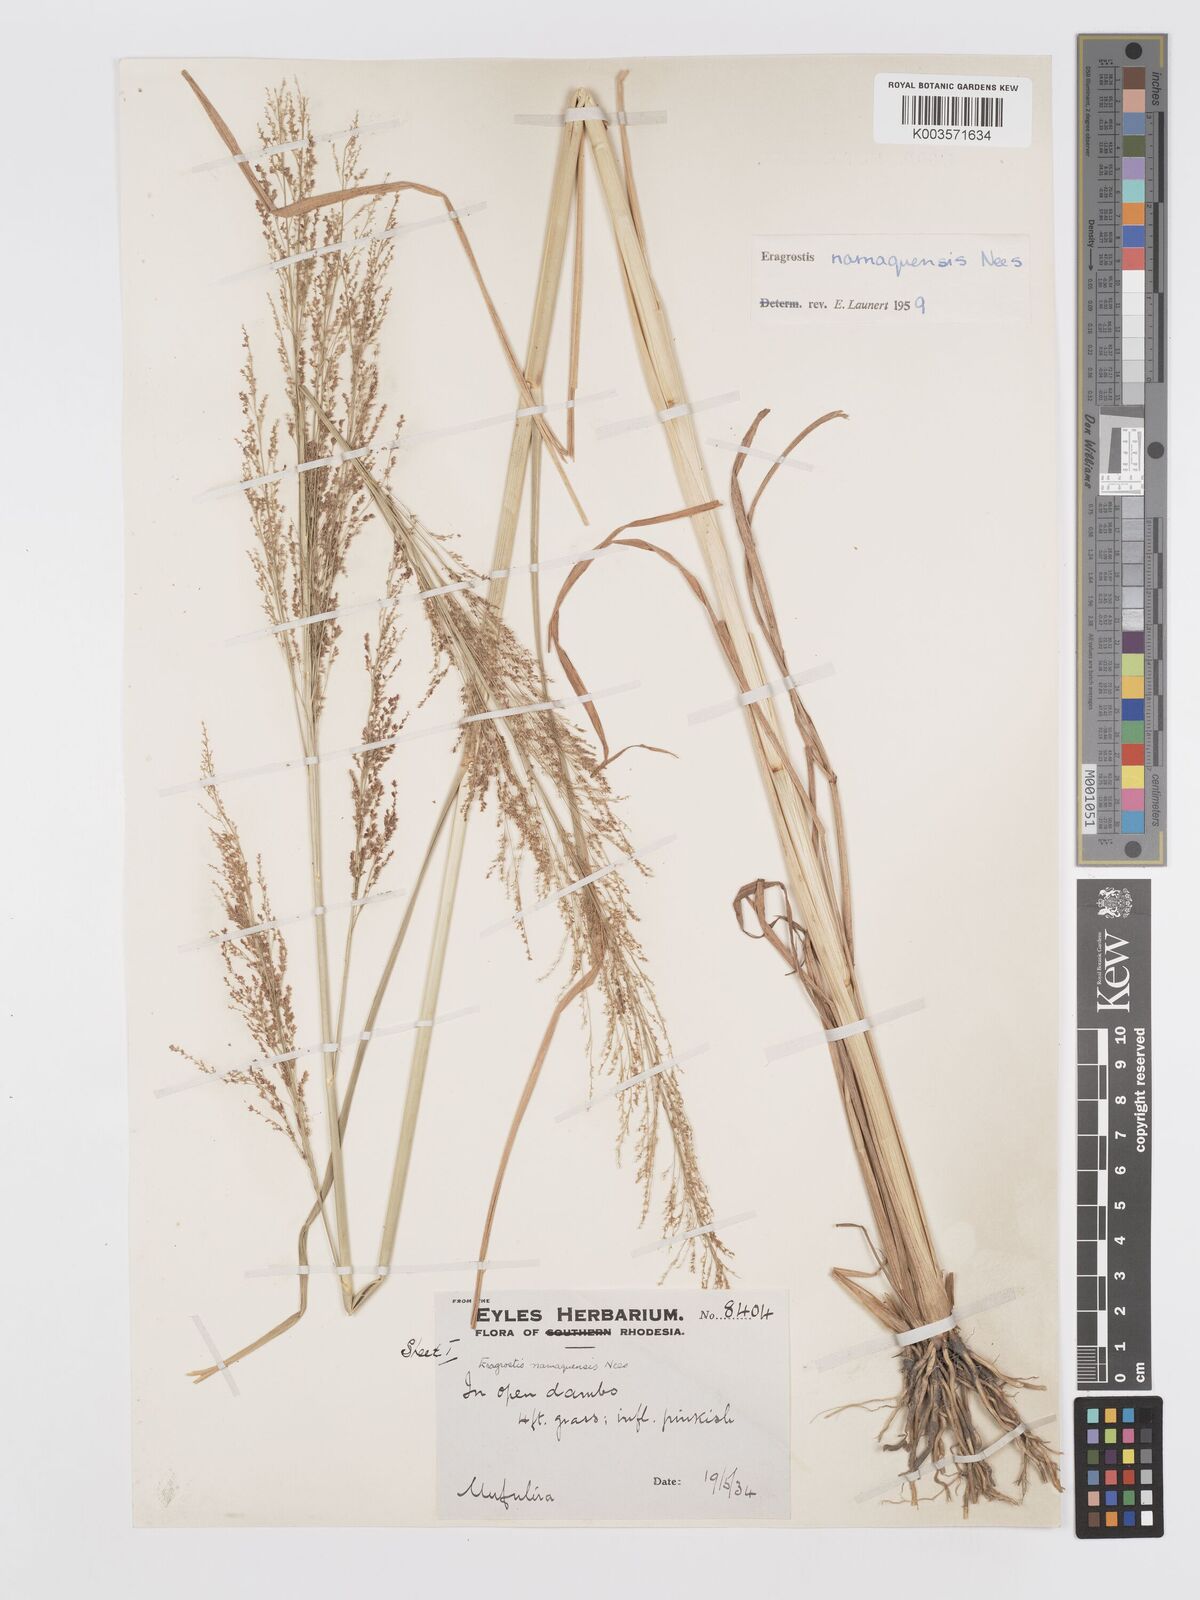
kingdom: Plantae
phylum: Tracheophyta
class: Liliopsida
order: Poales
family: Poaceae
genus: Eragrostis
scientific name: Eragrostis japonica
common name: Pond lovegrass
